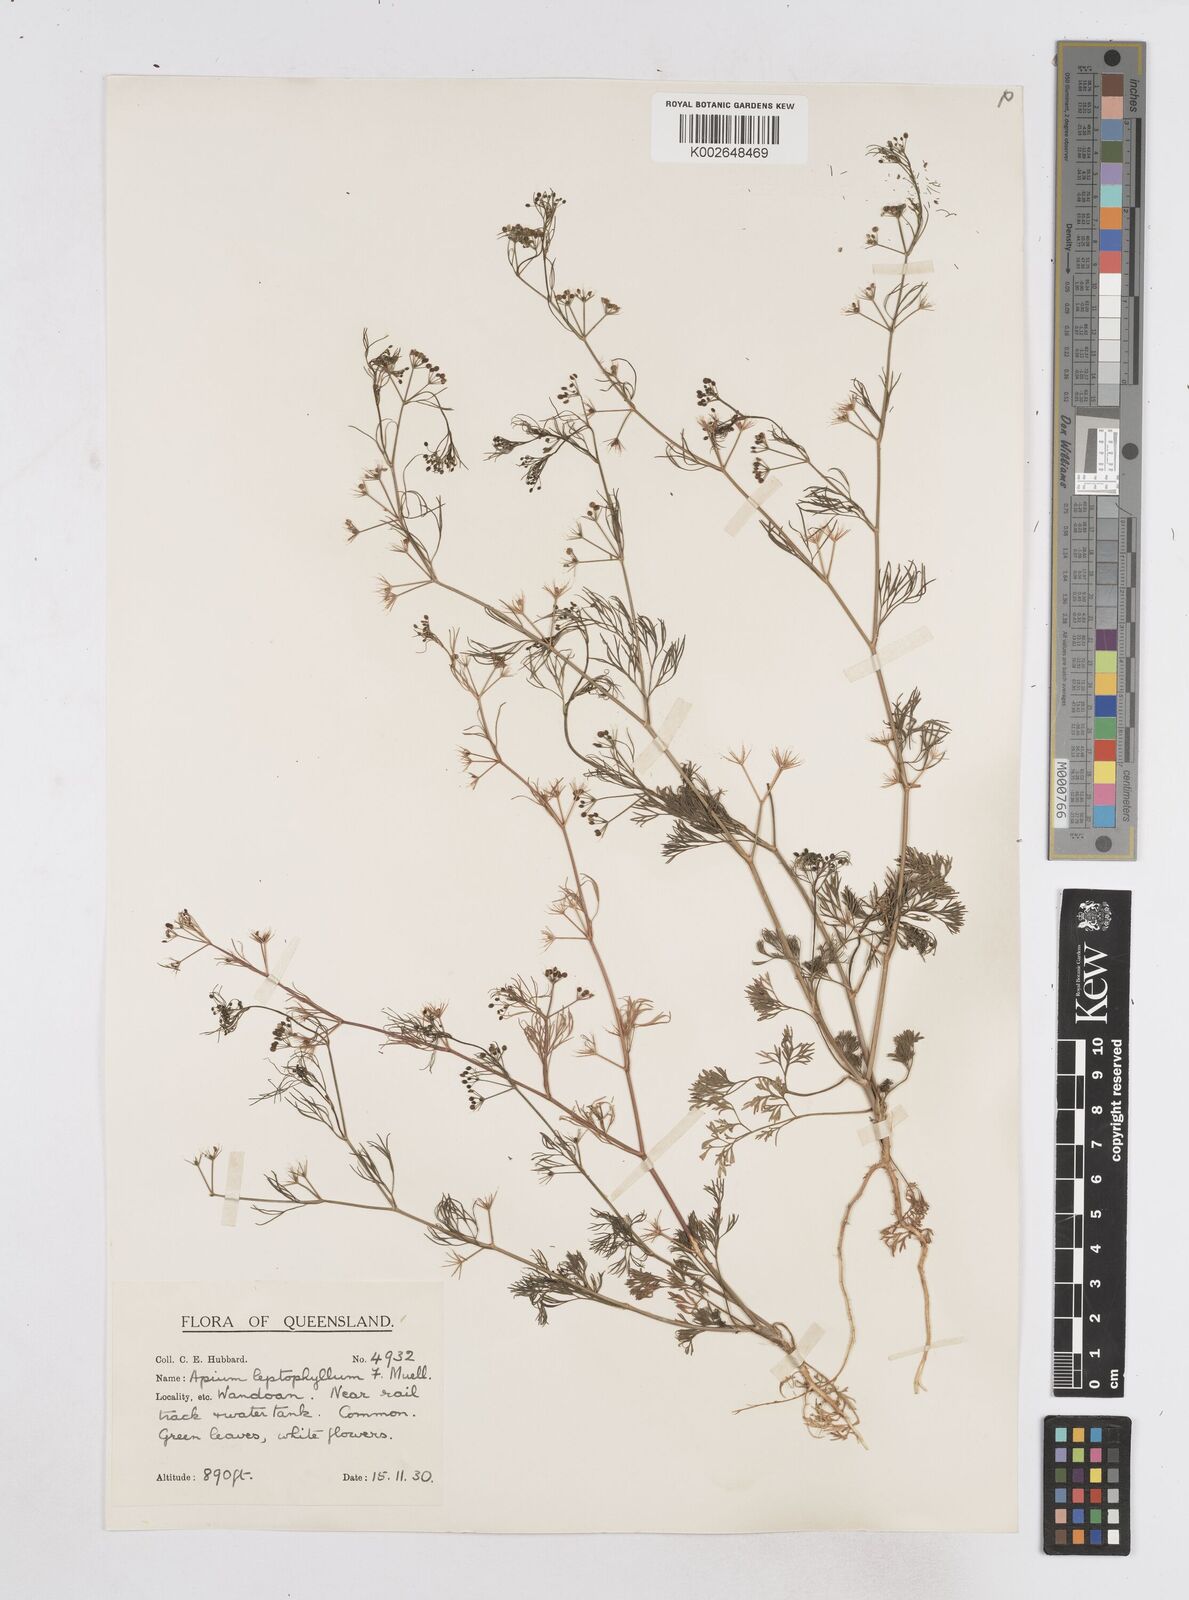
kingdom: Plantae
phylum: Tracheophyta
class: Magnoliopsida
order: Apiales
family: Apiaceae
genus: Cyclospermum
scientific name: Cyclospermum leptophyllum
